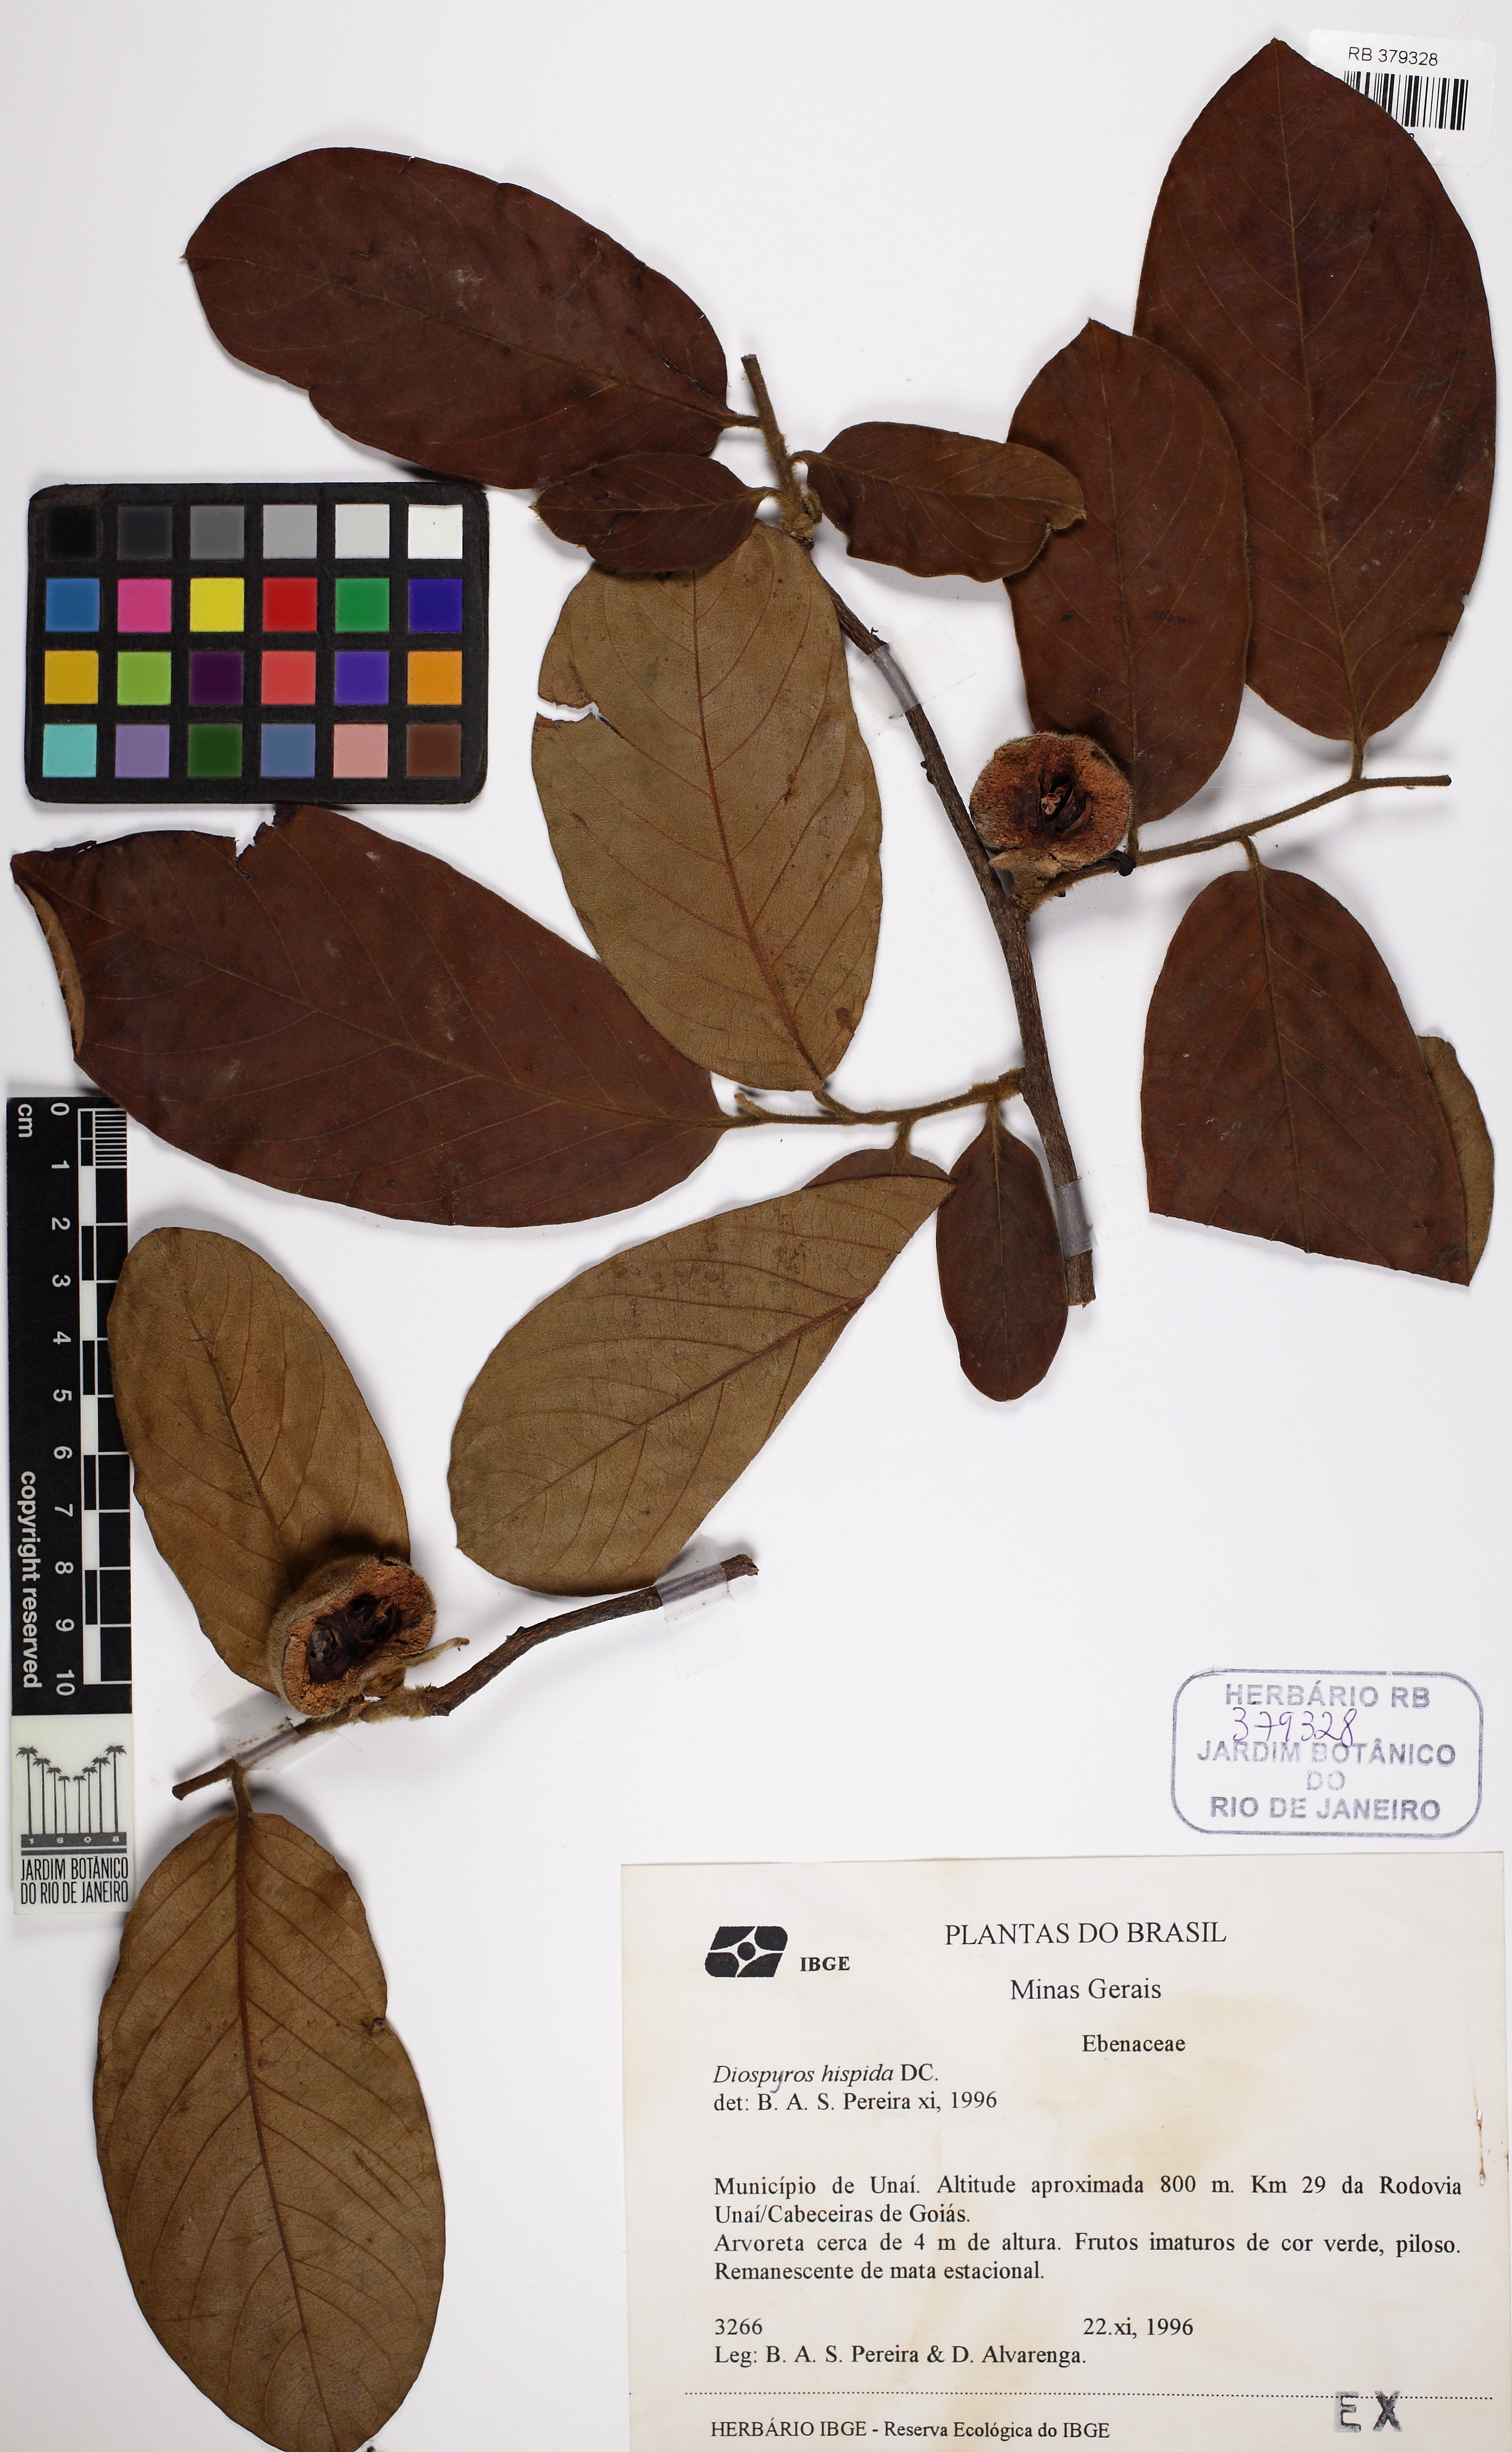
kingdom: Plantae
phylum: Tracheophyta
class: Magnoliopsida
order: Ericales
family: Ebenaceae
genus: Diospyros
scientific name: Diospyros lasiocalyx
